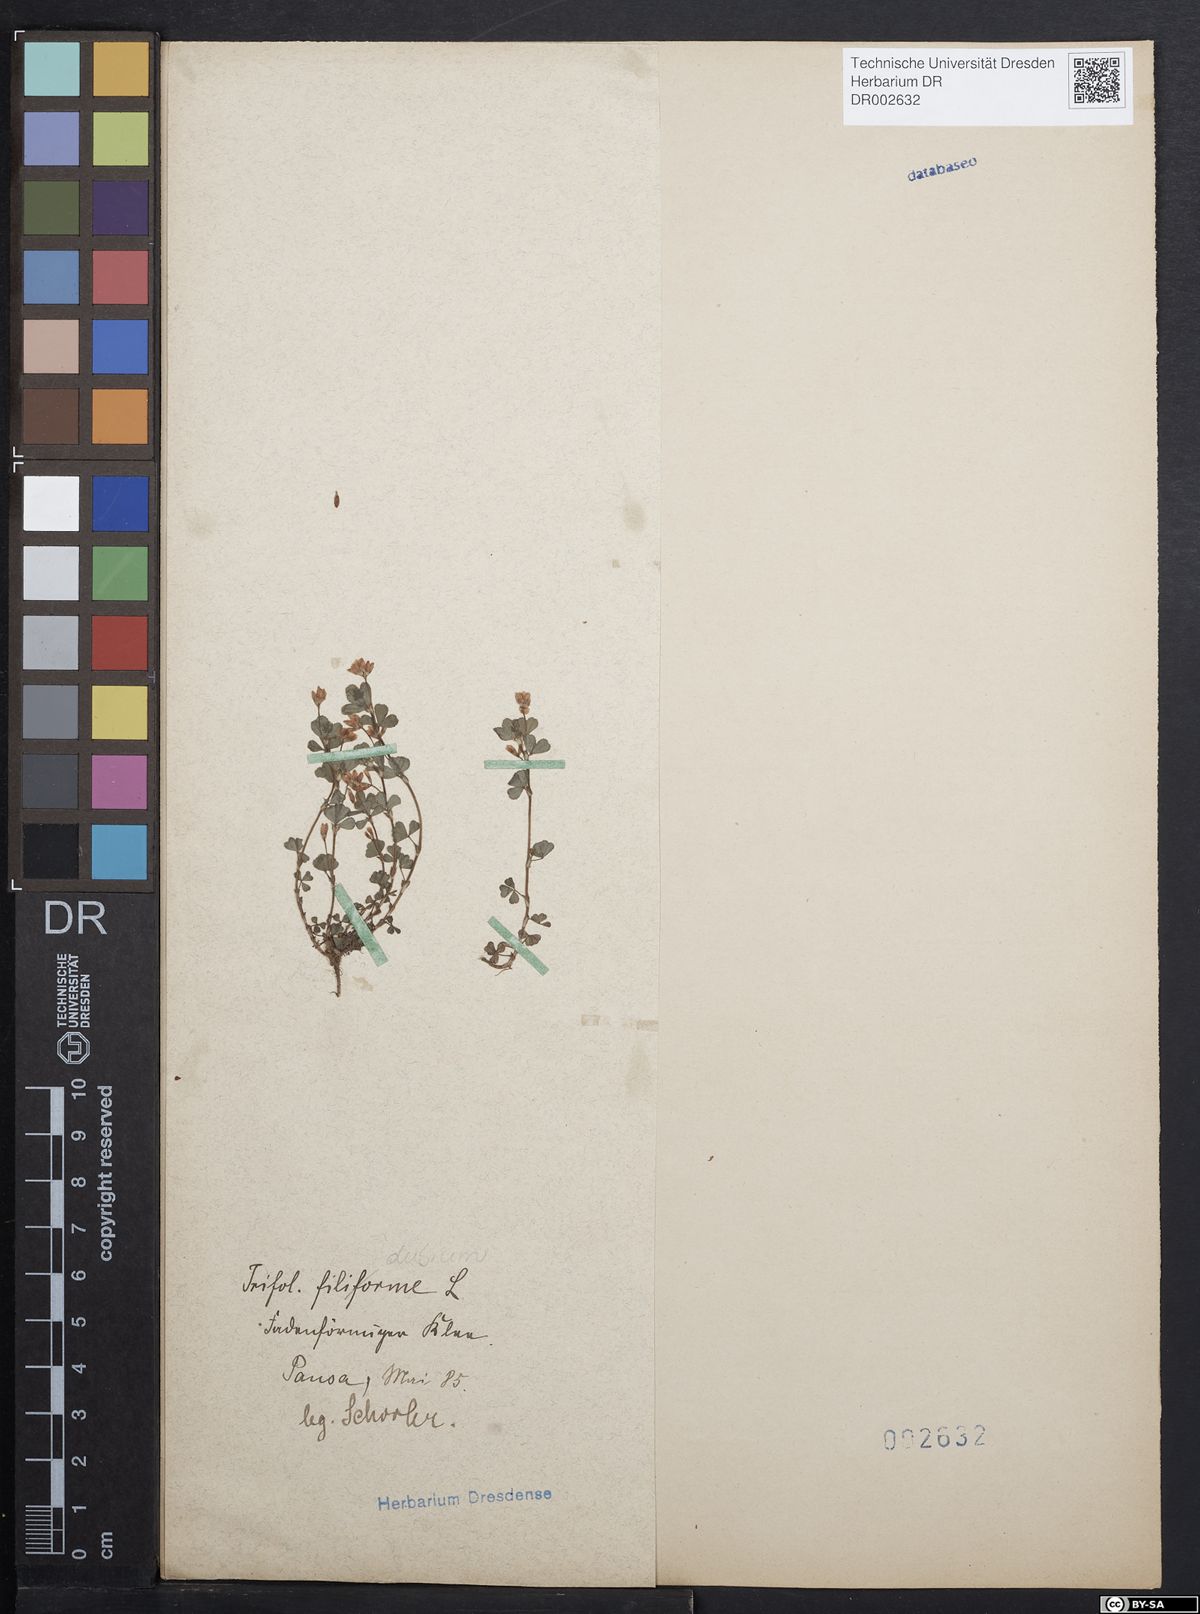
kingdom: Plantae
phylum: Tracheophyta
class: Magnoliopsida
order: Fabales
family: Fabaceae
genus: Trifolium
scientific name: Trifolium dubium
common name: Suckling clover
